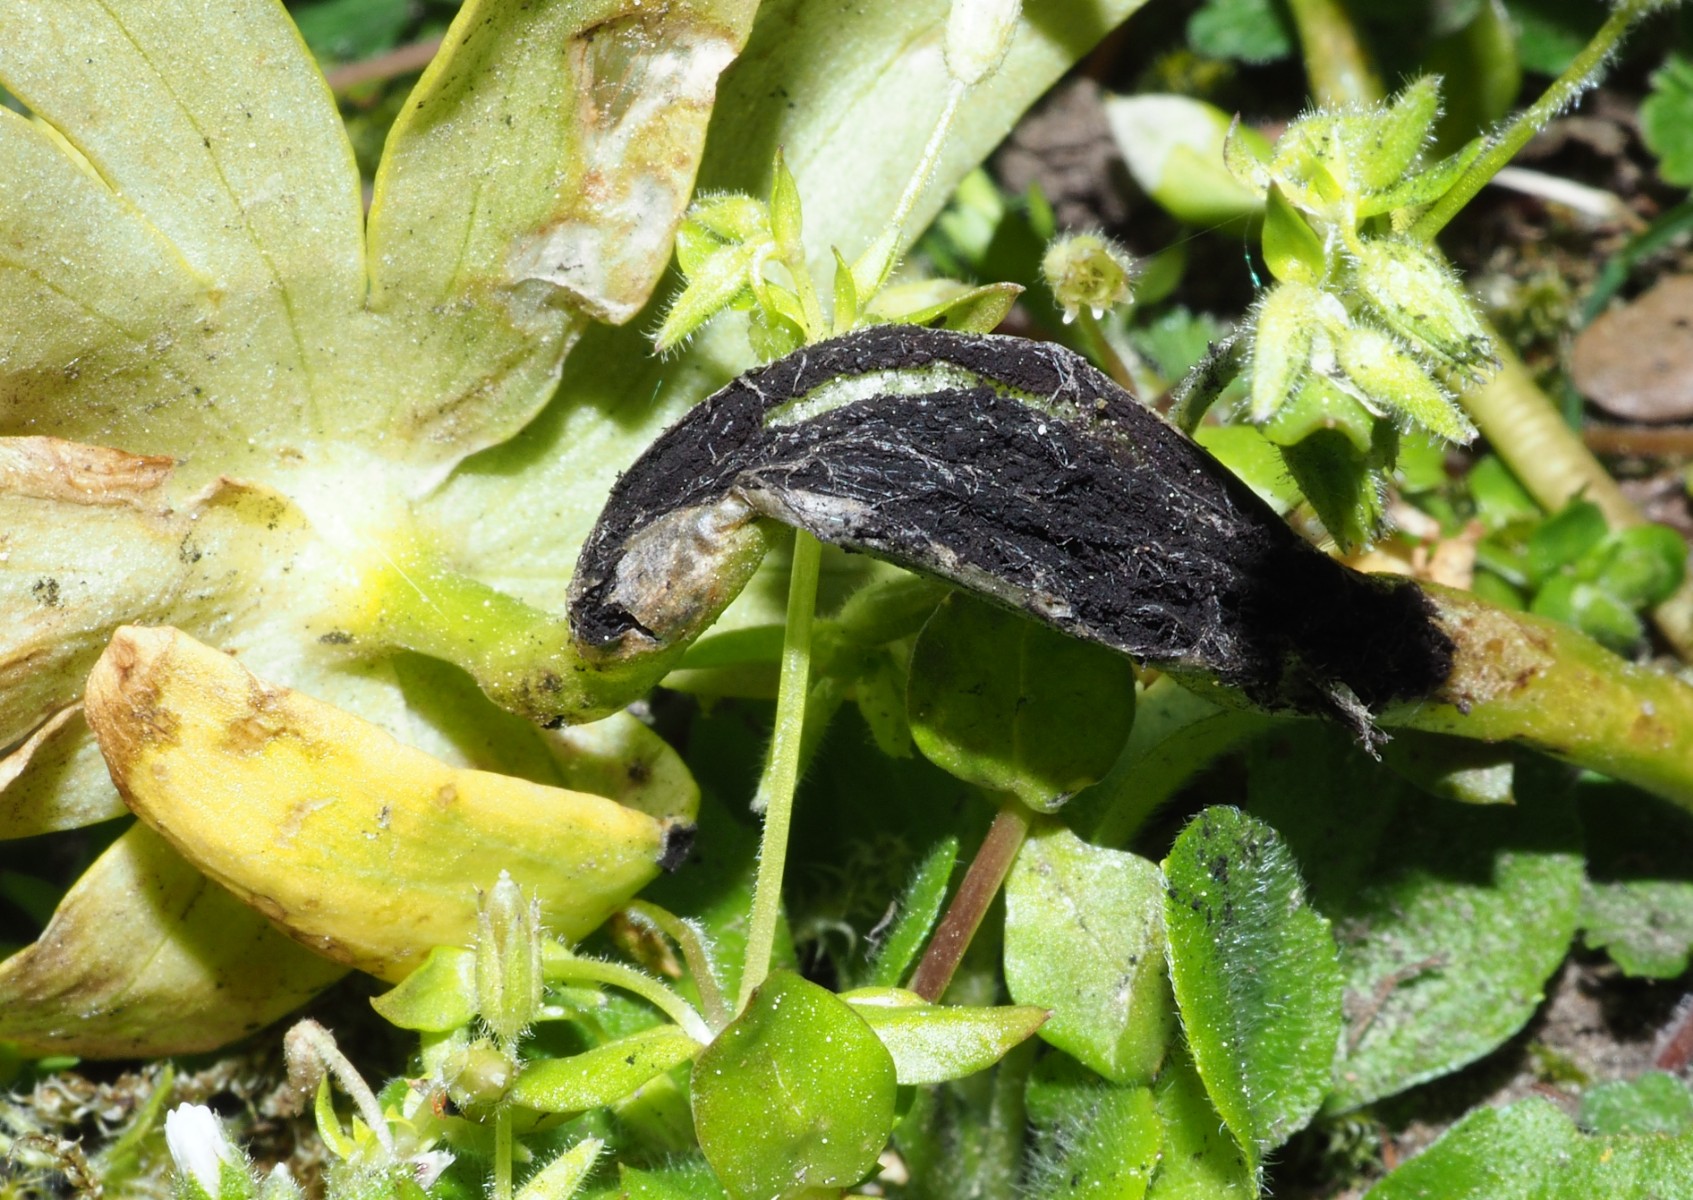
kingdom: Fungi
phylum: Basidiomycota
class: Ustilaginomycetes
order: Urocystidales
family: Urocystidaceae
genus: Urocystis
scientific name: Urocystis eranthidis
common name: erantis-brand
